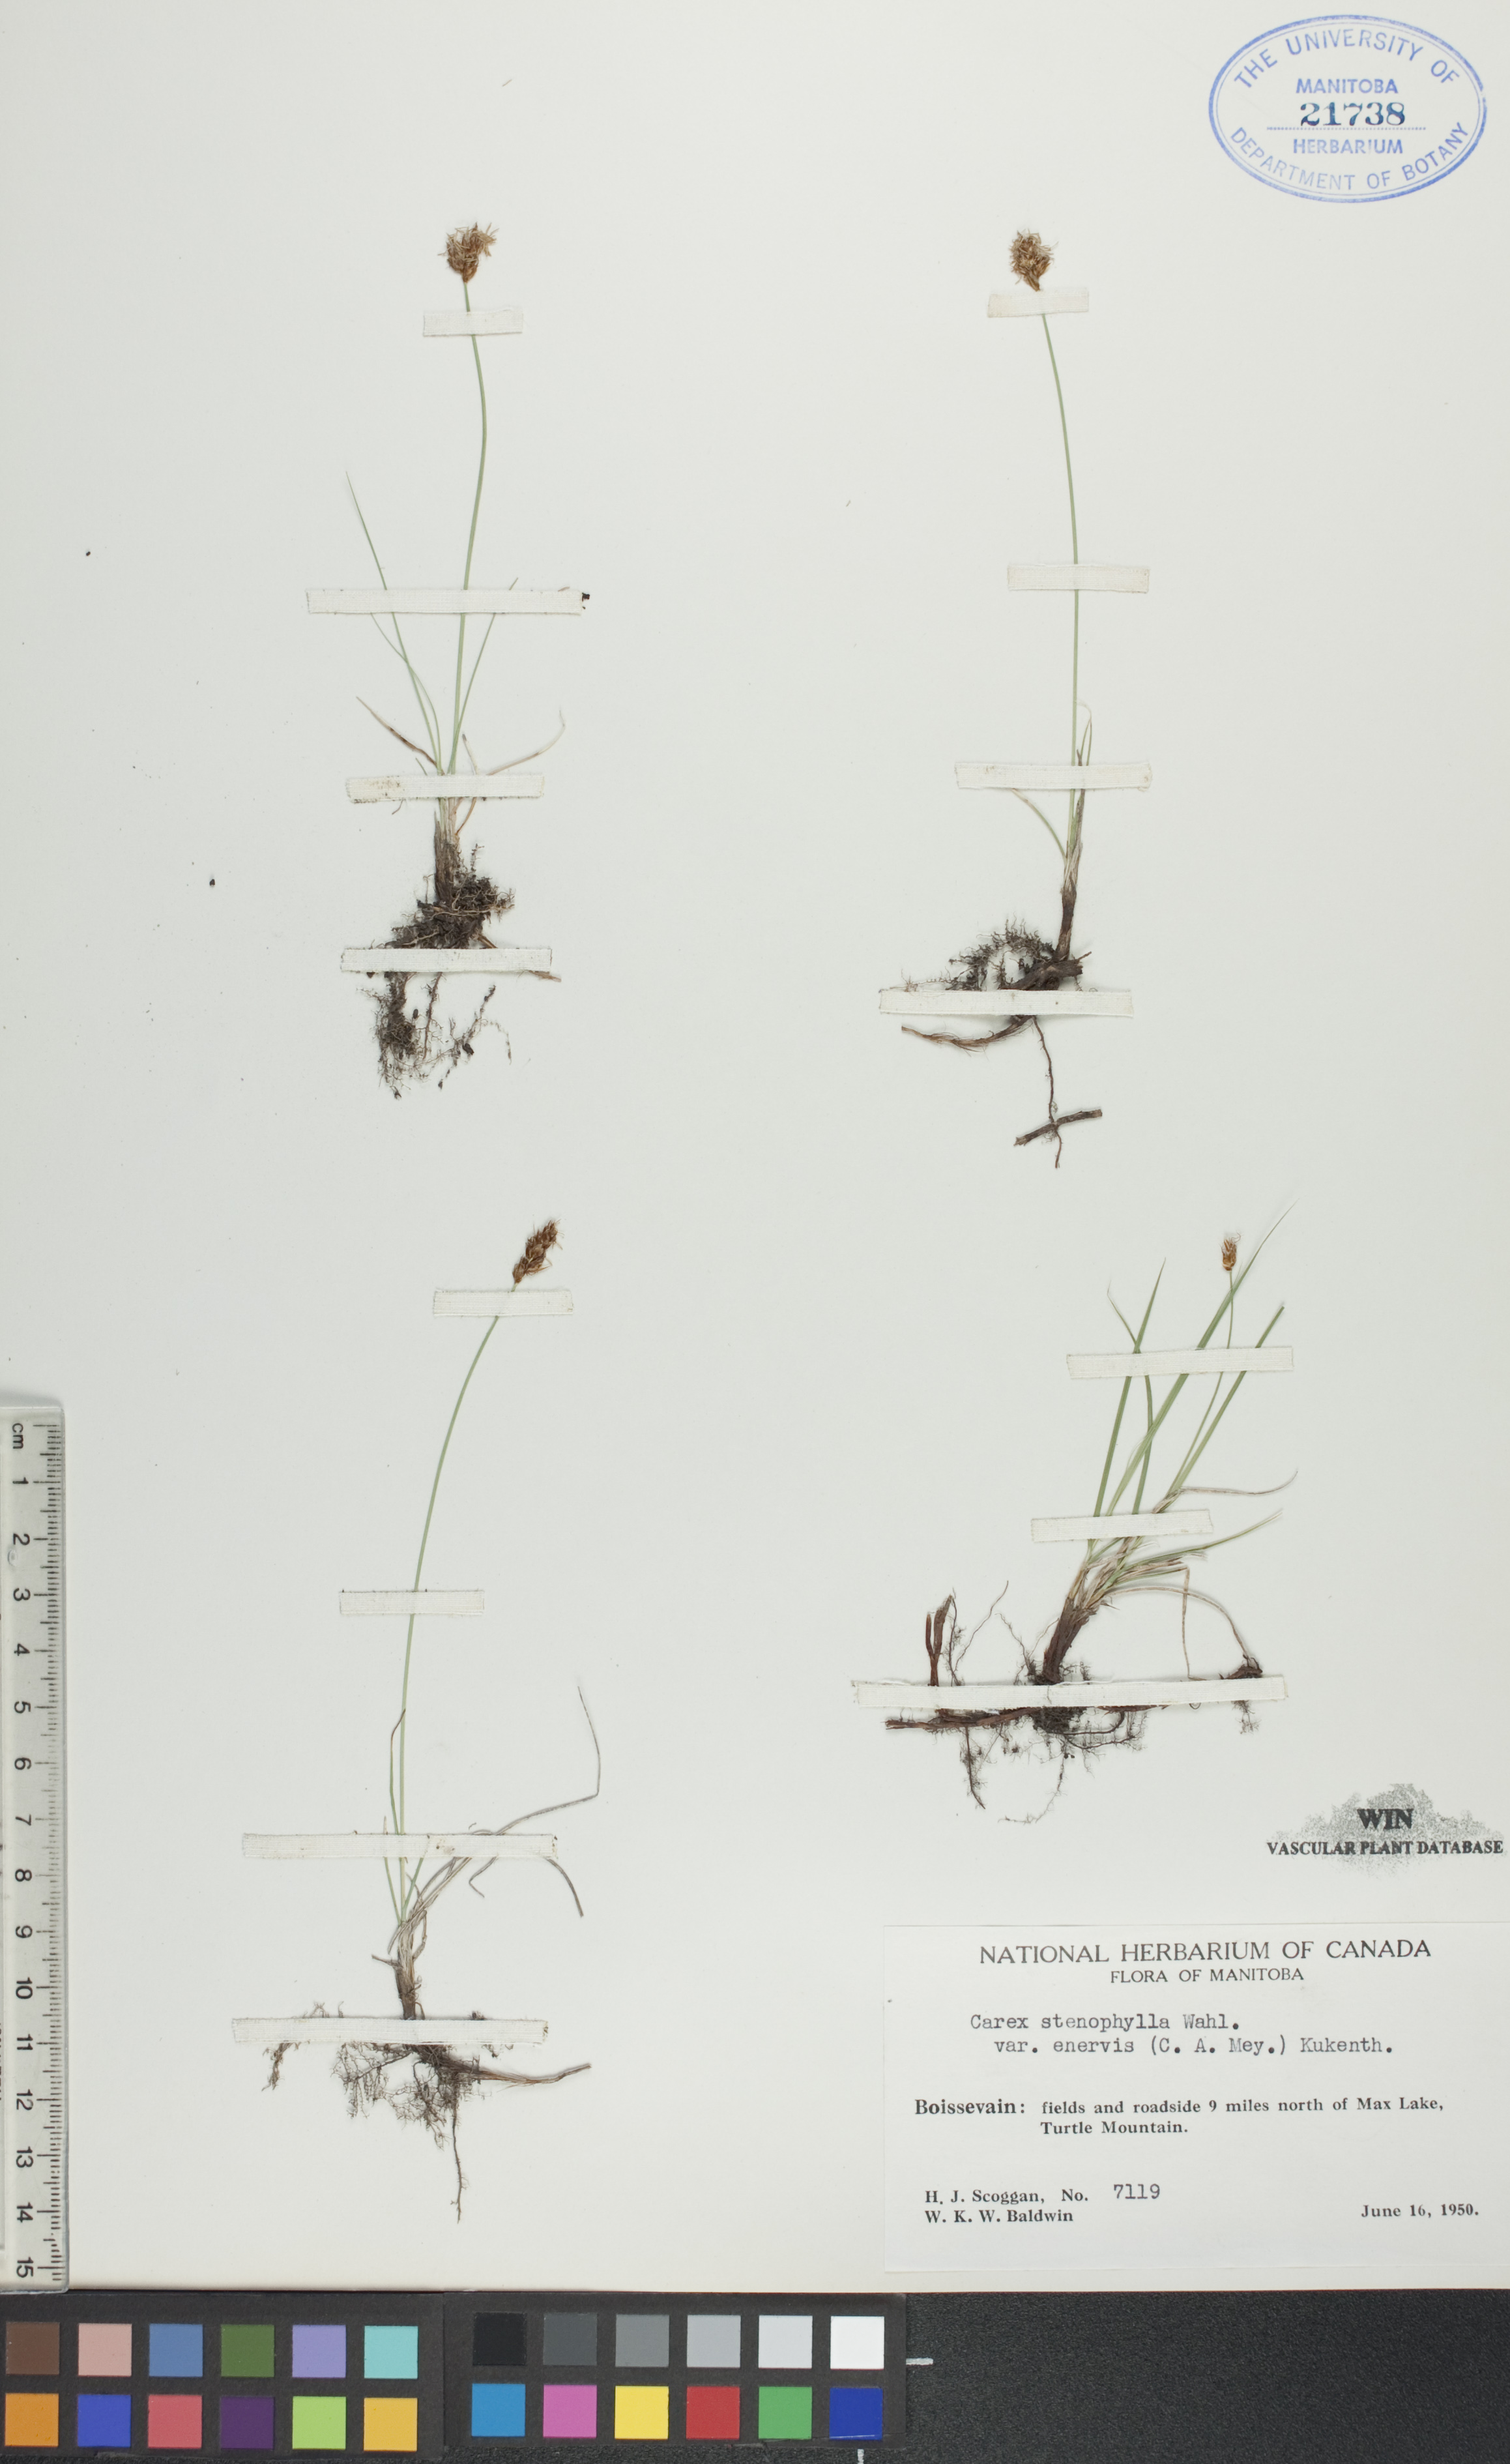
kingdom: Plantae
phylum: Tracheophyta
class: Liliopsida
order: Poales
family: Cyperaceae
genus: Carex
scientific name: Carex enervis
